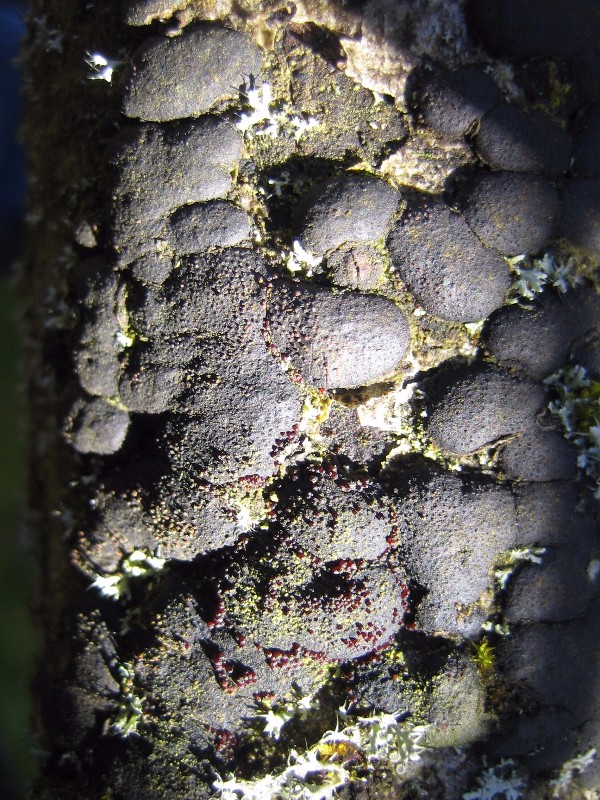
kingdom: Fungi
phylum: Ascomycota
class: Sordariomycetes
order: Hypocreales
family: Nectriaceae
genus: Cosmospora
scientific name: Cosmospora
